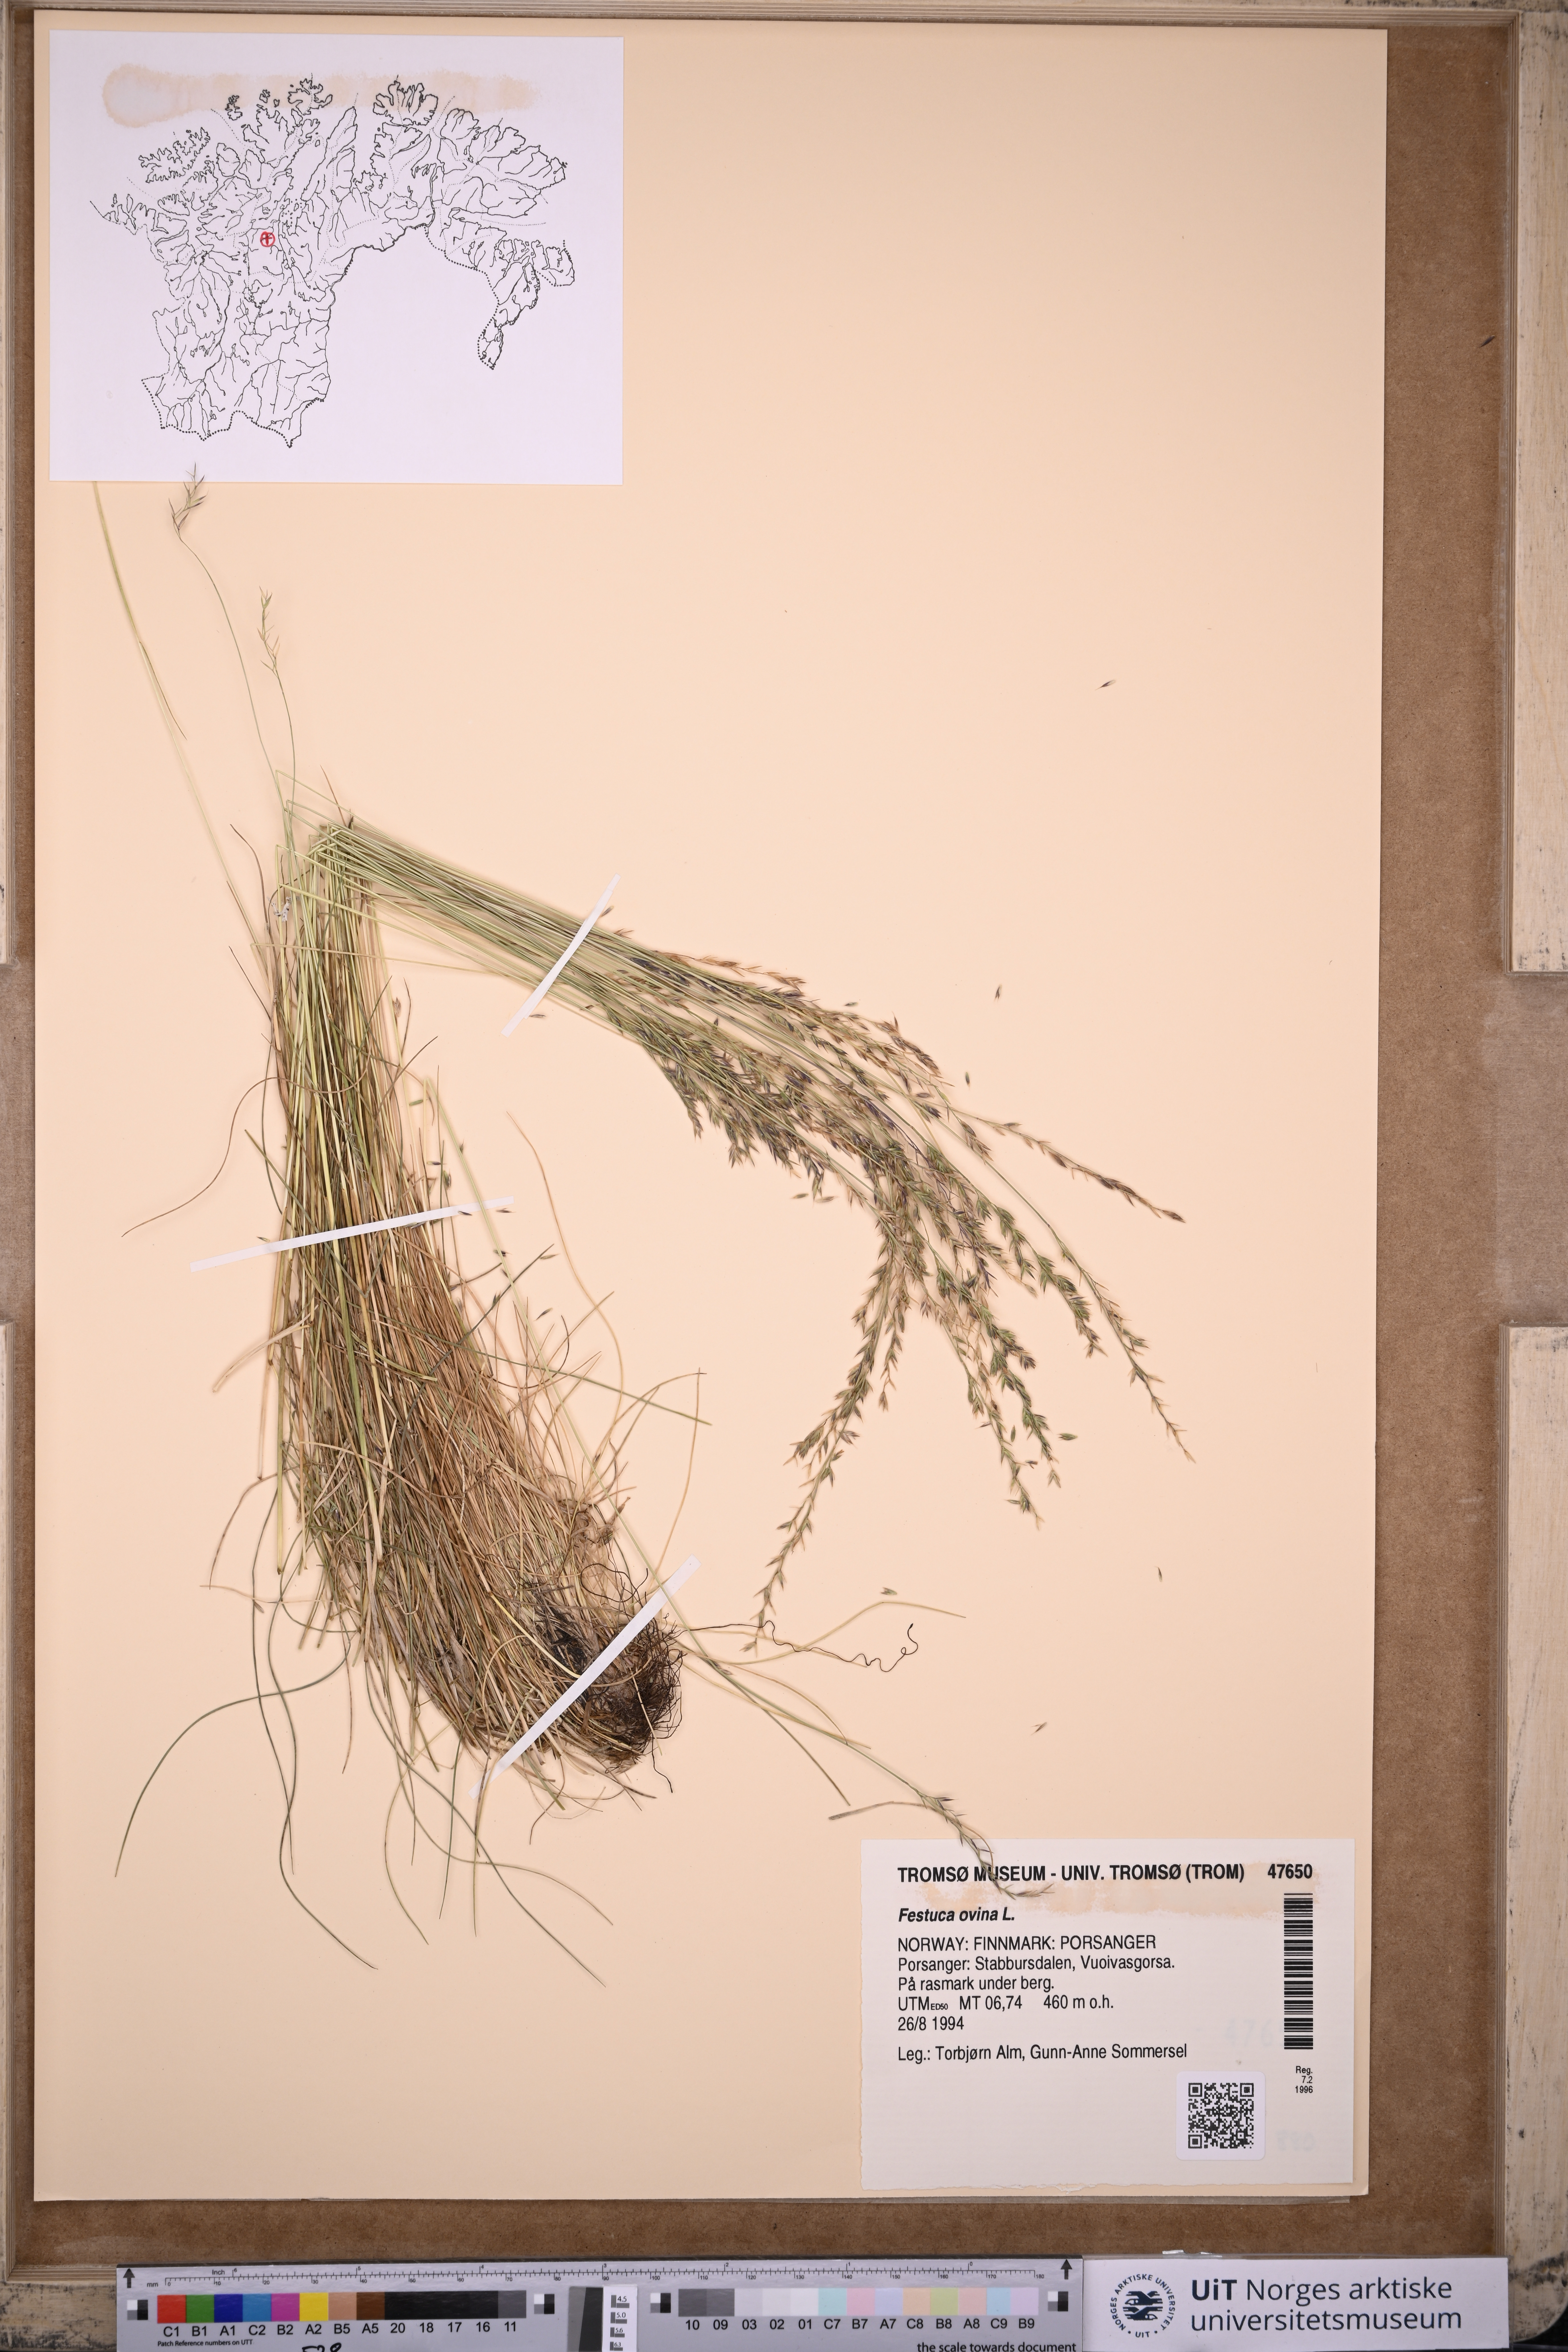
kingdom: Plantae
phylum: Tracheophyta
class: Liliopsida
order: Poales
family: Poaceae
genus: Festuca
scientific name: Festuca ovina
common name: Sheep fescue
